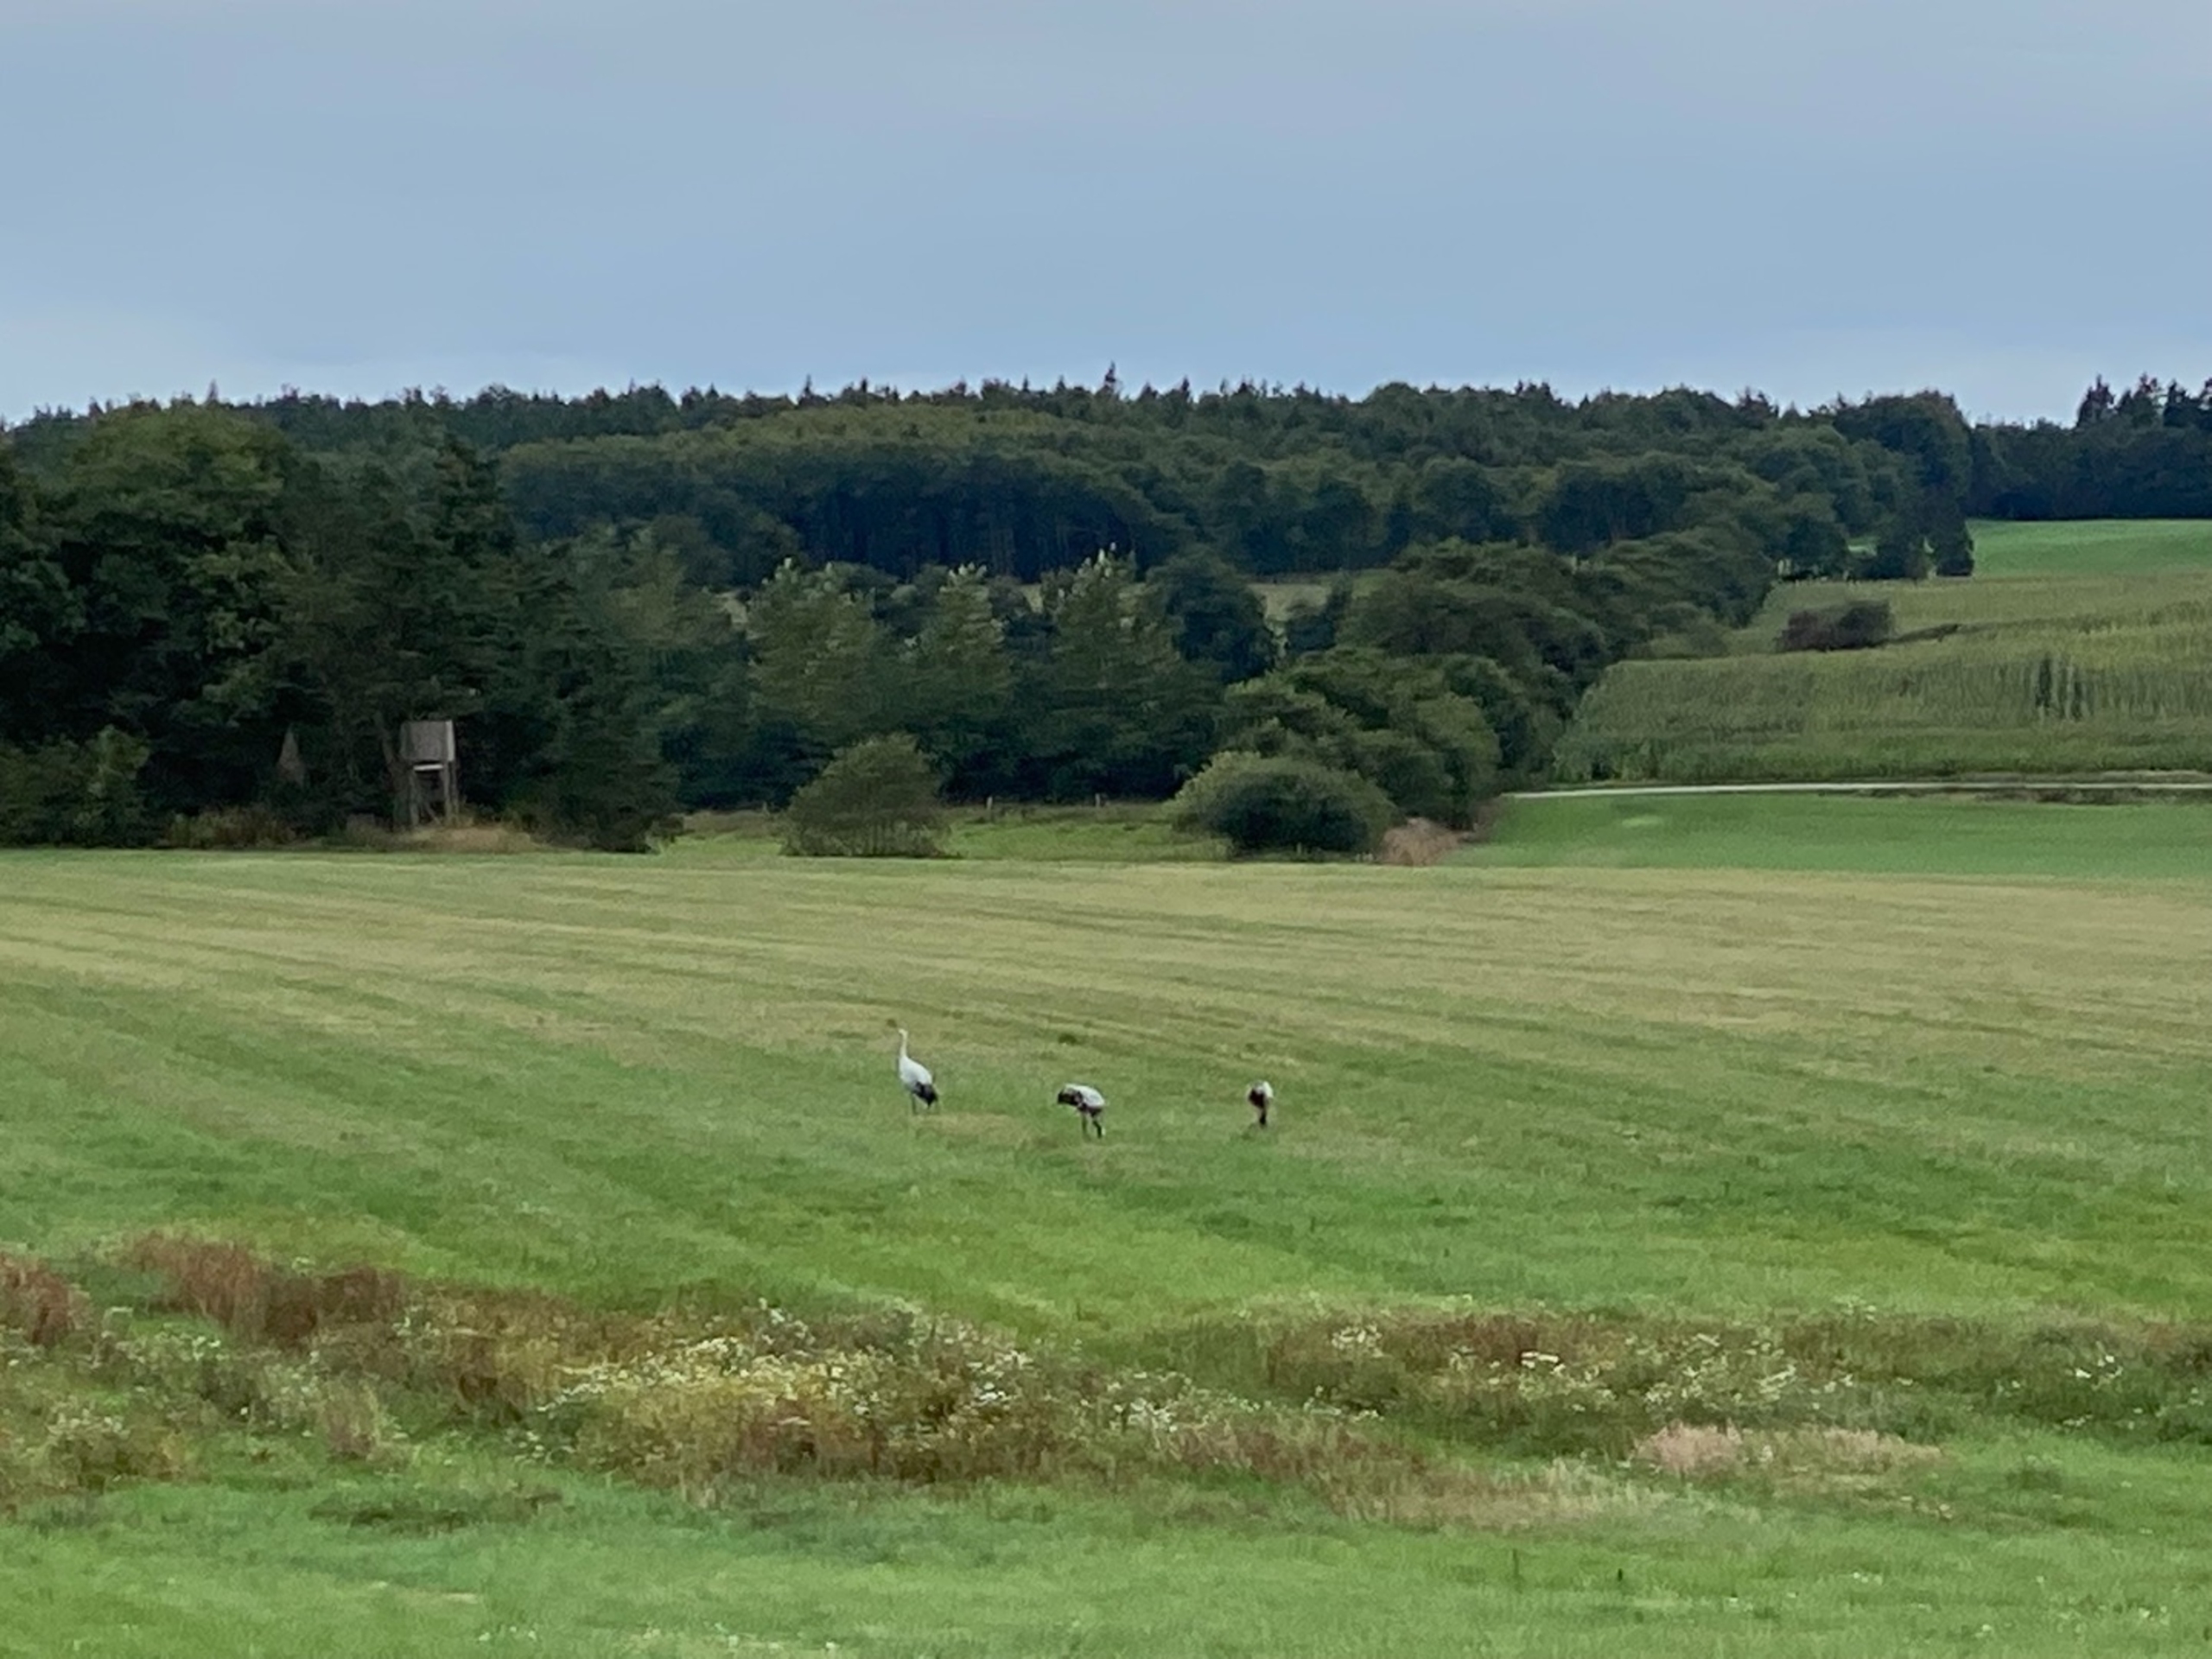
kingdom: Animalia
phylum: Chordata
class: Aves
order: Gruiformes
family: Gruidae
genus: Grus
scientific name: Grus grus
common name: Trane
